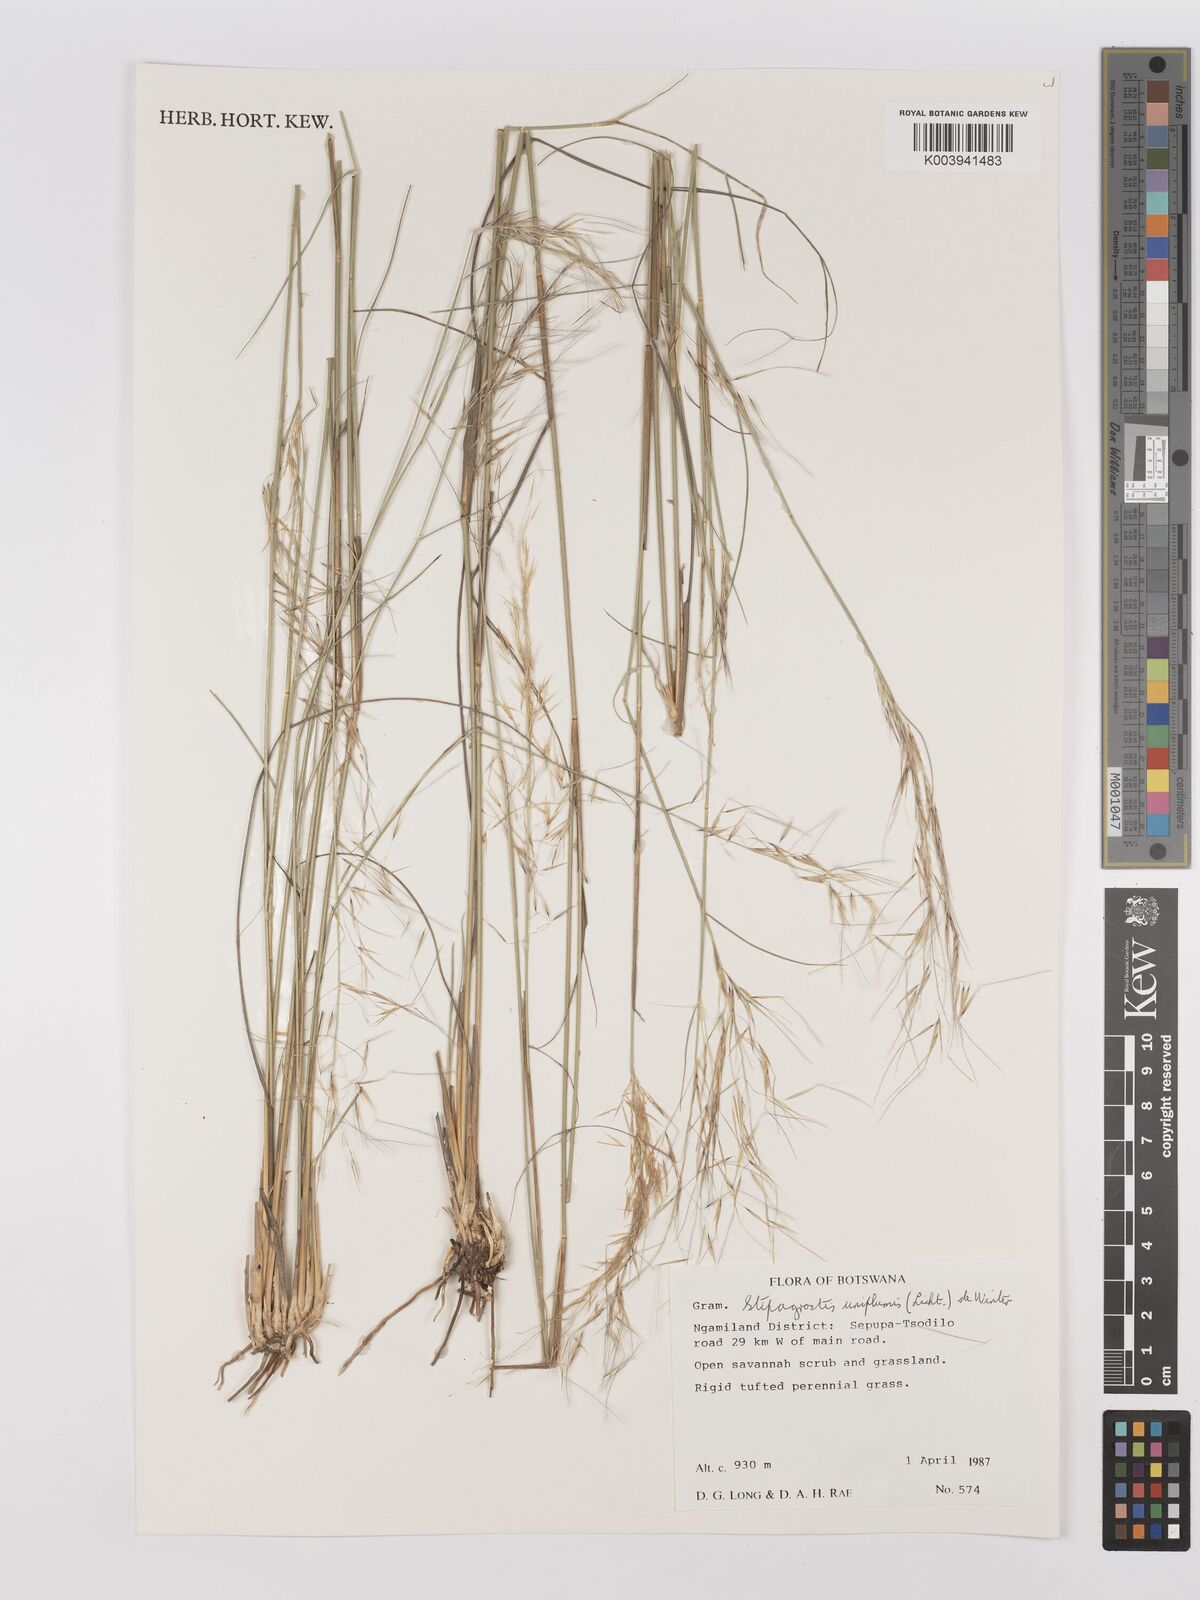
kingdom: Plantae
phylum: Tracheophyta
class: Liliopsida
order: Poales
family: Poaceae
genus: Stipagrostis
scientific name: Stipagrostis uniplumis
